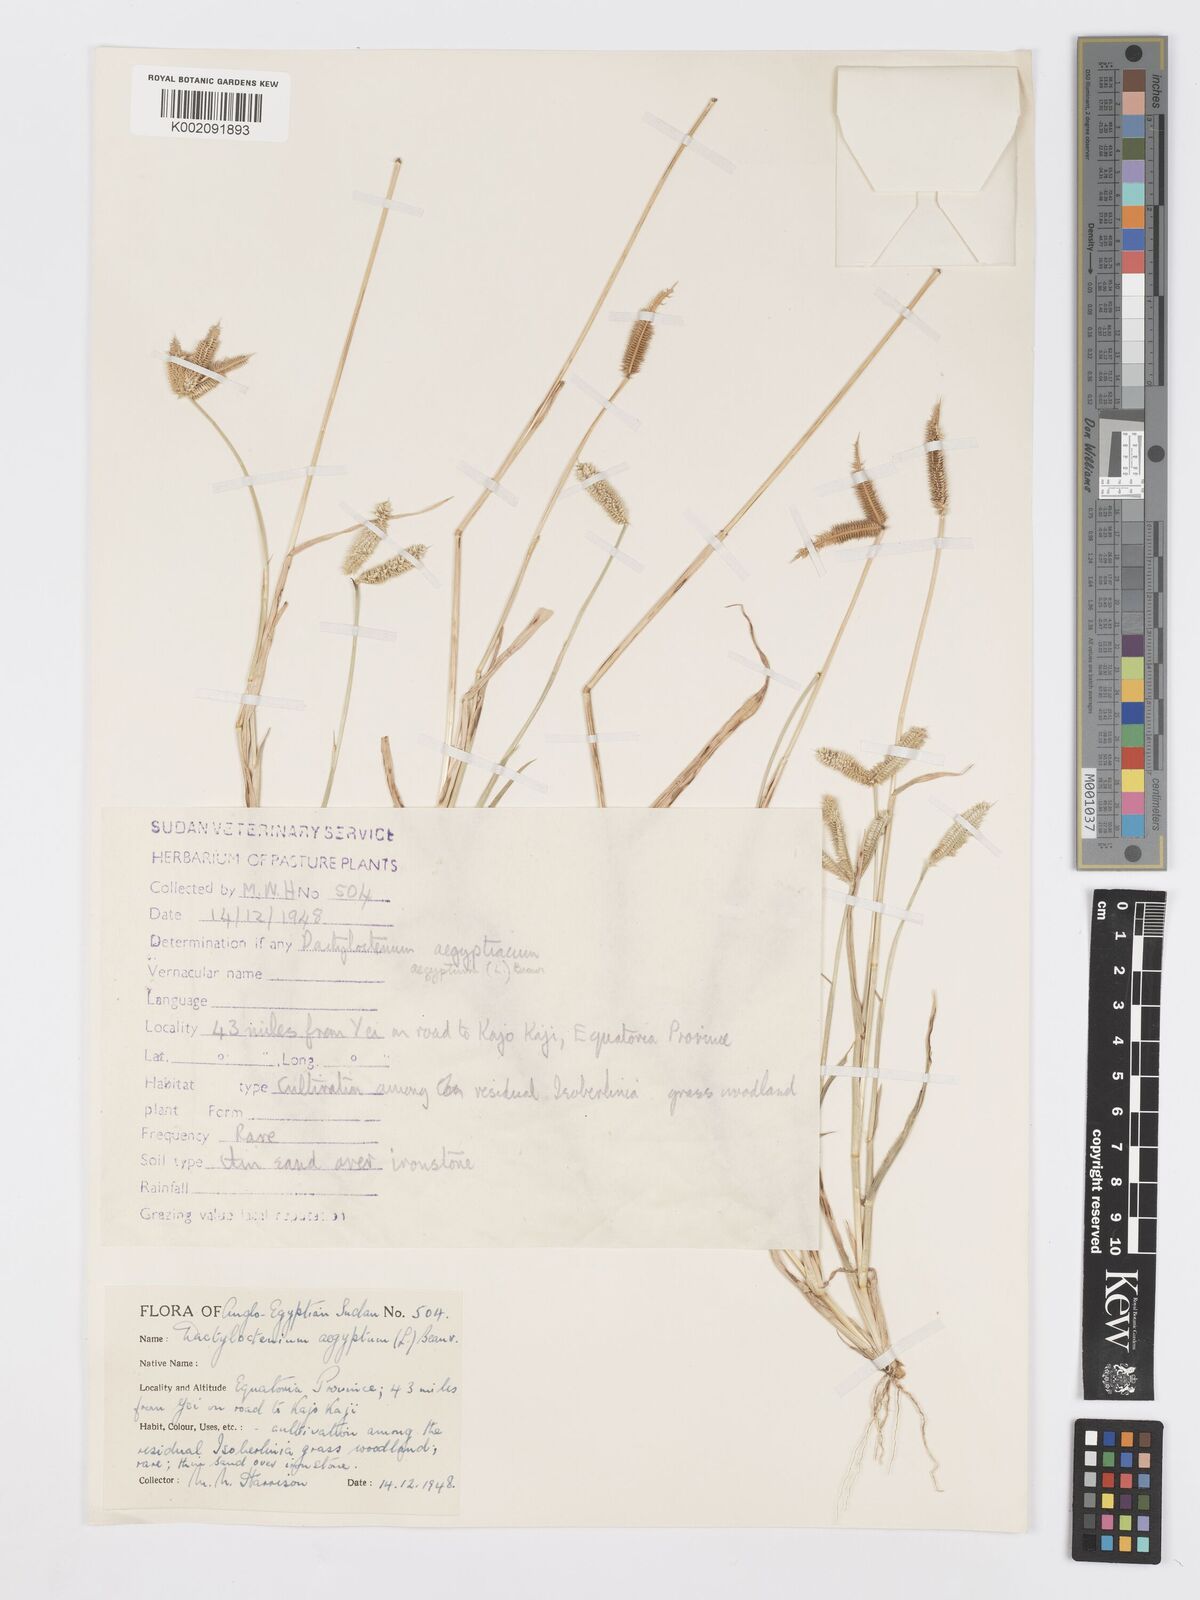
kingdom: Plantae
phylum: Tracheophyta
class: Liliopsida
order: Poales
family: Poaceae
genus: Dactyloctenium
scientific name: Dactyloctenium aegyptium
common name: Egyptian grass
